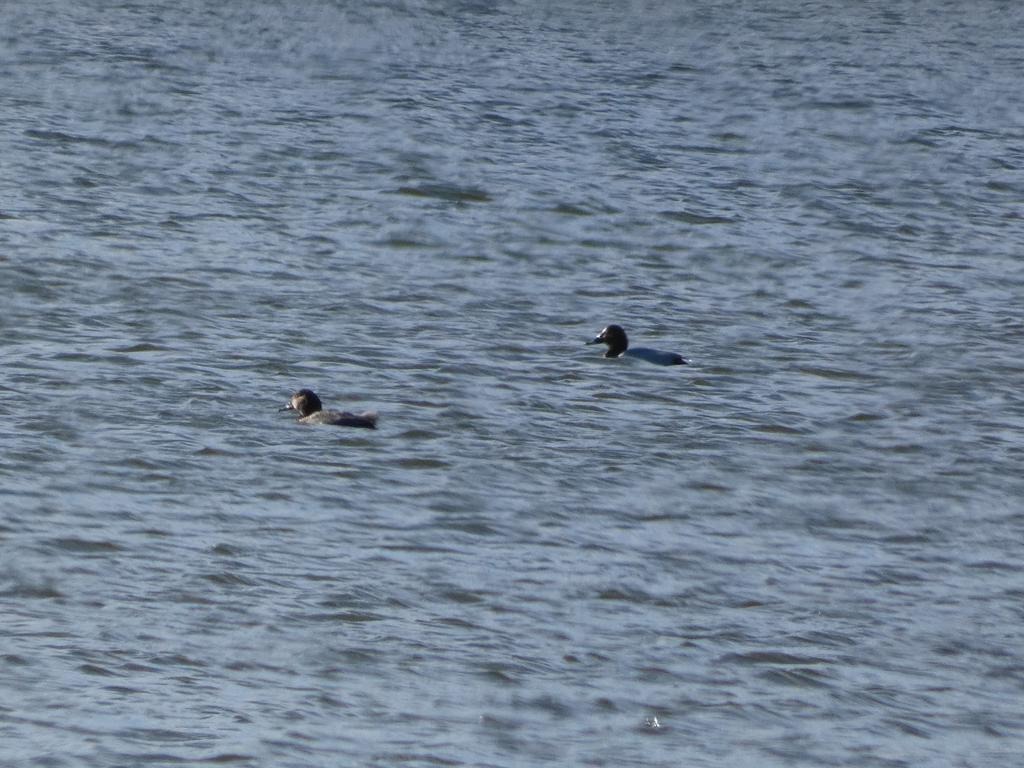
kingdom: Animalia
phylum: Chordata
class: Aves
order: Anseriformes
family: Anatidae
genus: Aythya
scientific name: Aythya ferina
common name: Taffeland
